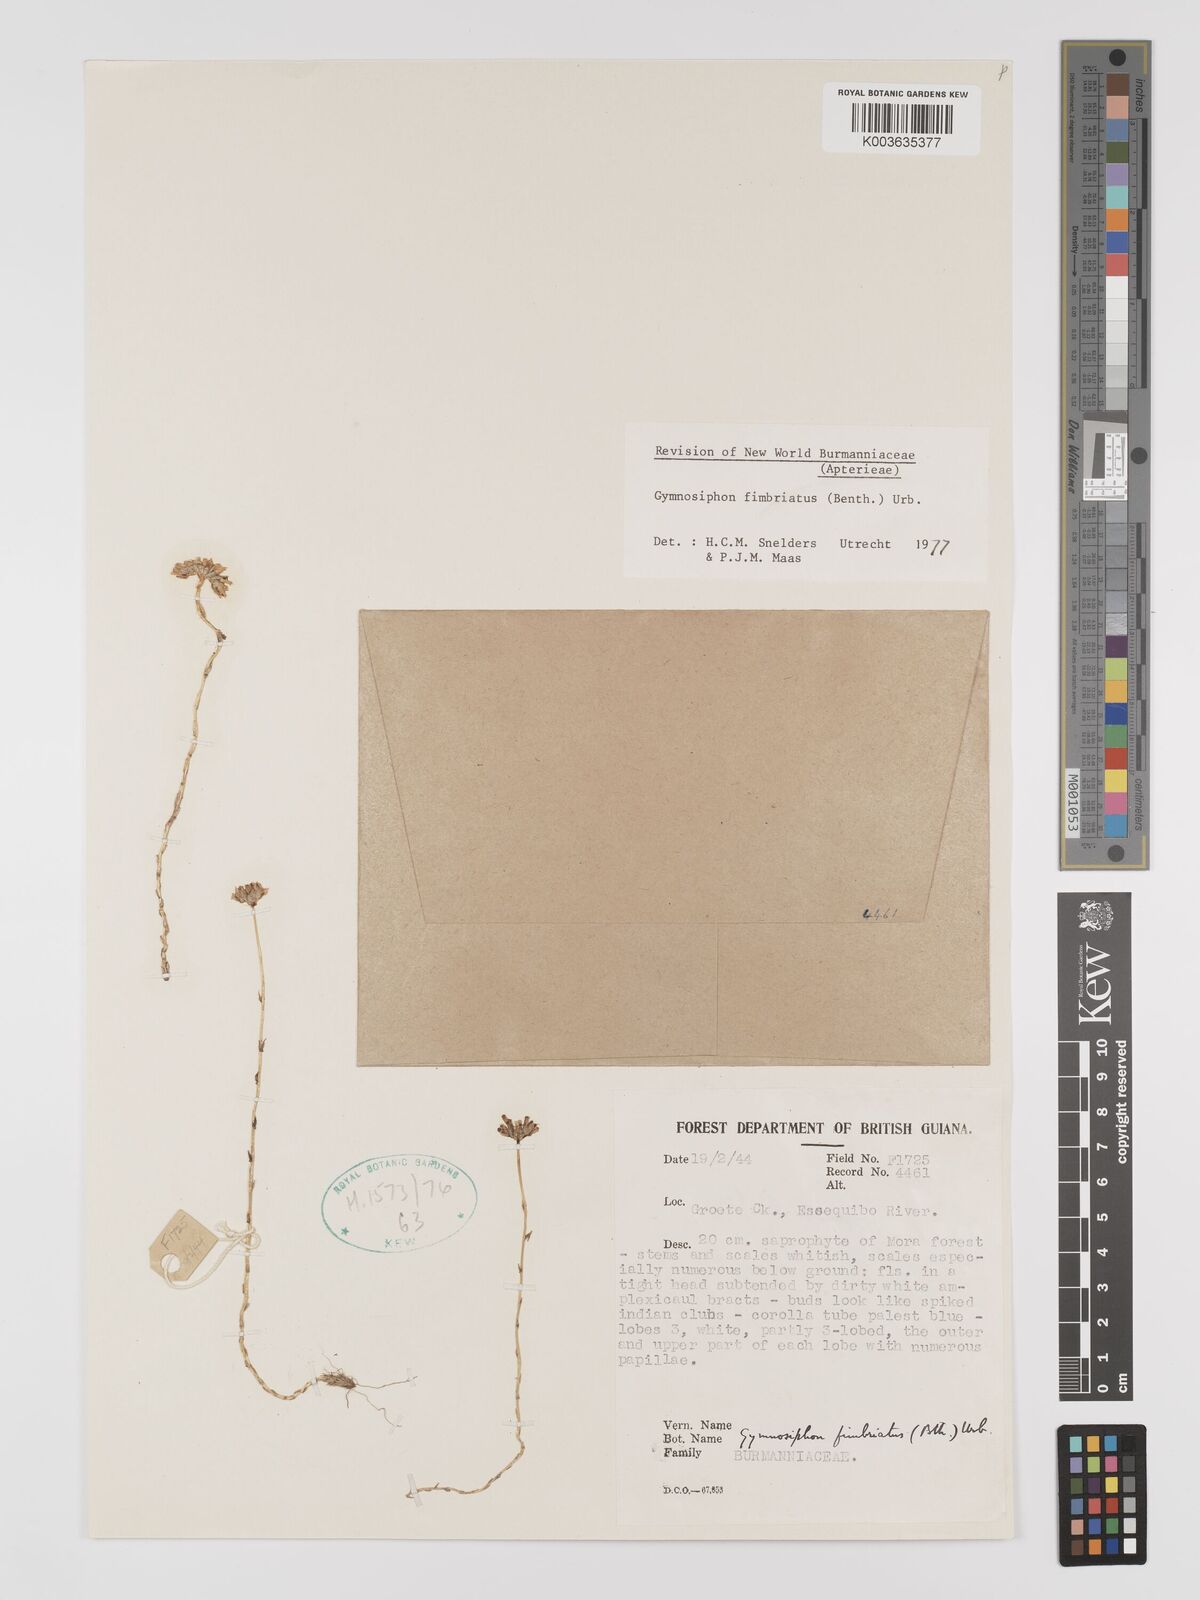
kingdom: Plantae
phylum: Tracheophyta
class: Liliopsida
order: Dioscoreales
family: Burmanniaceae
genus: Gymnosiphon
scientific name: Gymnosiphon fimbriatus
